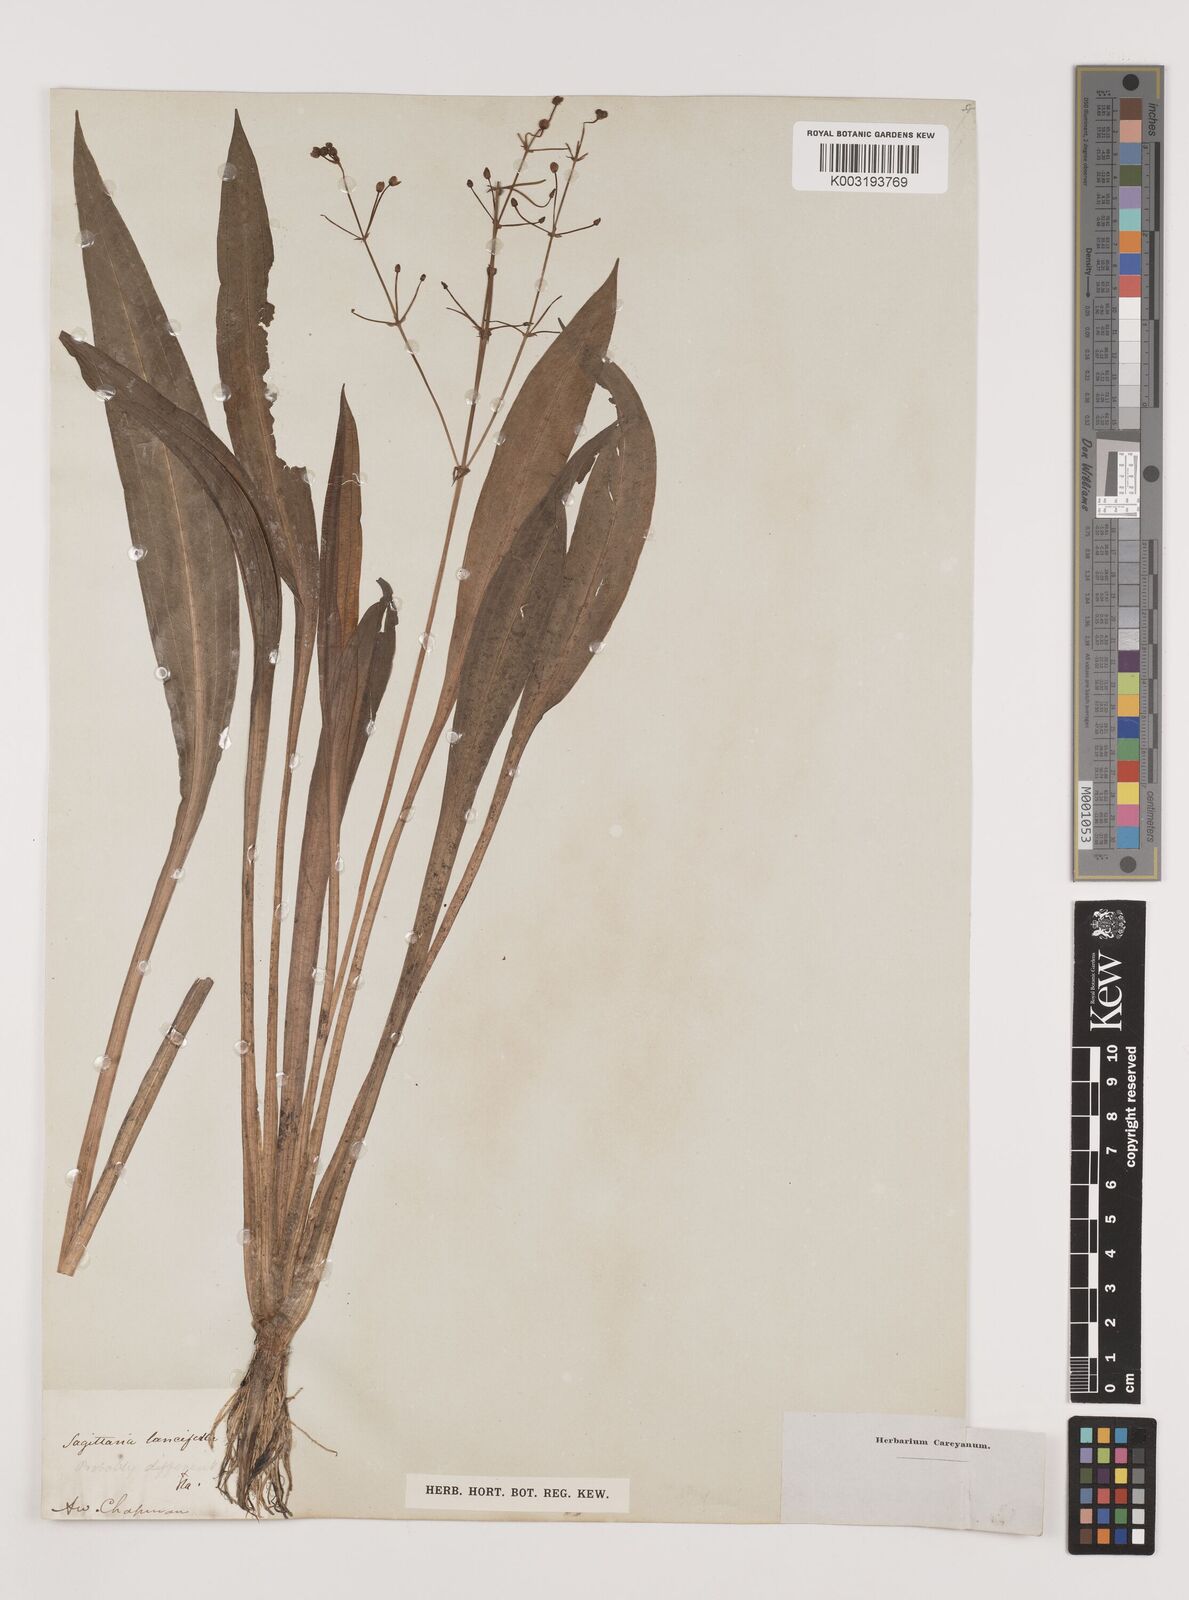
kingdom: Plantae
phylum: Tracheophyta
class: Liliopsida
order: Alismatales
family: Alismataceae
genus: Sagittaria
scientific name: Sagittaria lancifolia
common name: Lance-leaf arrowhead
